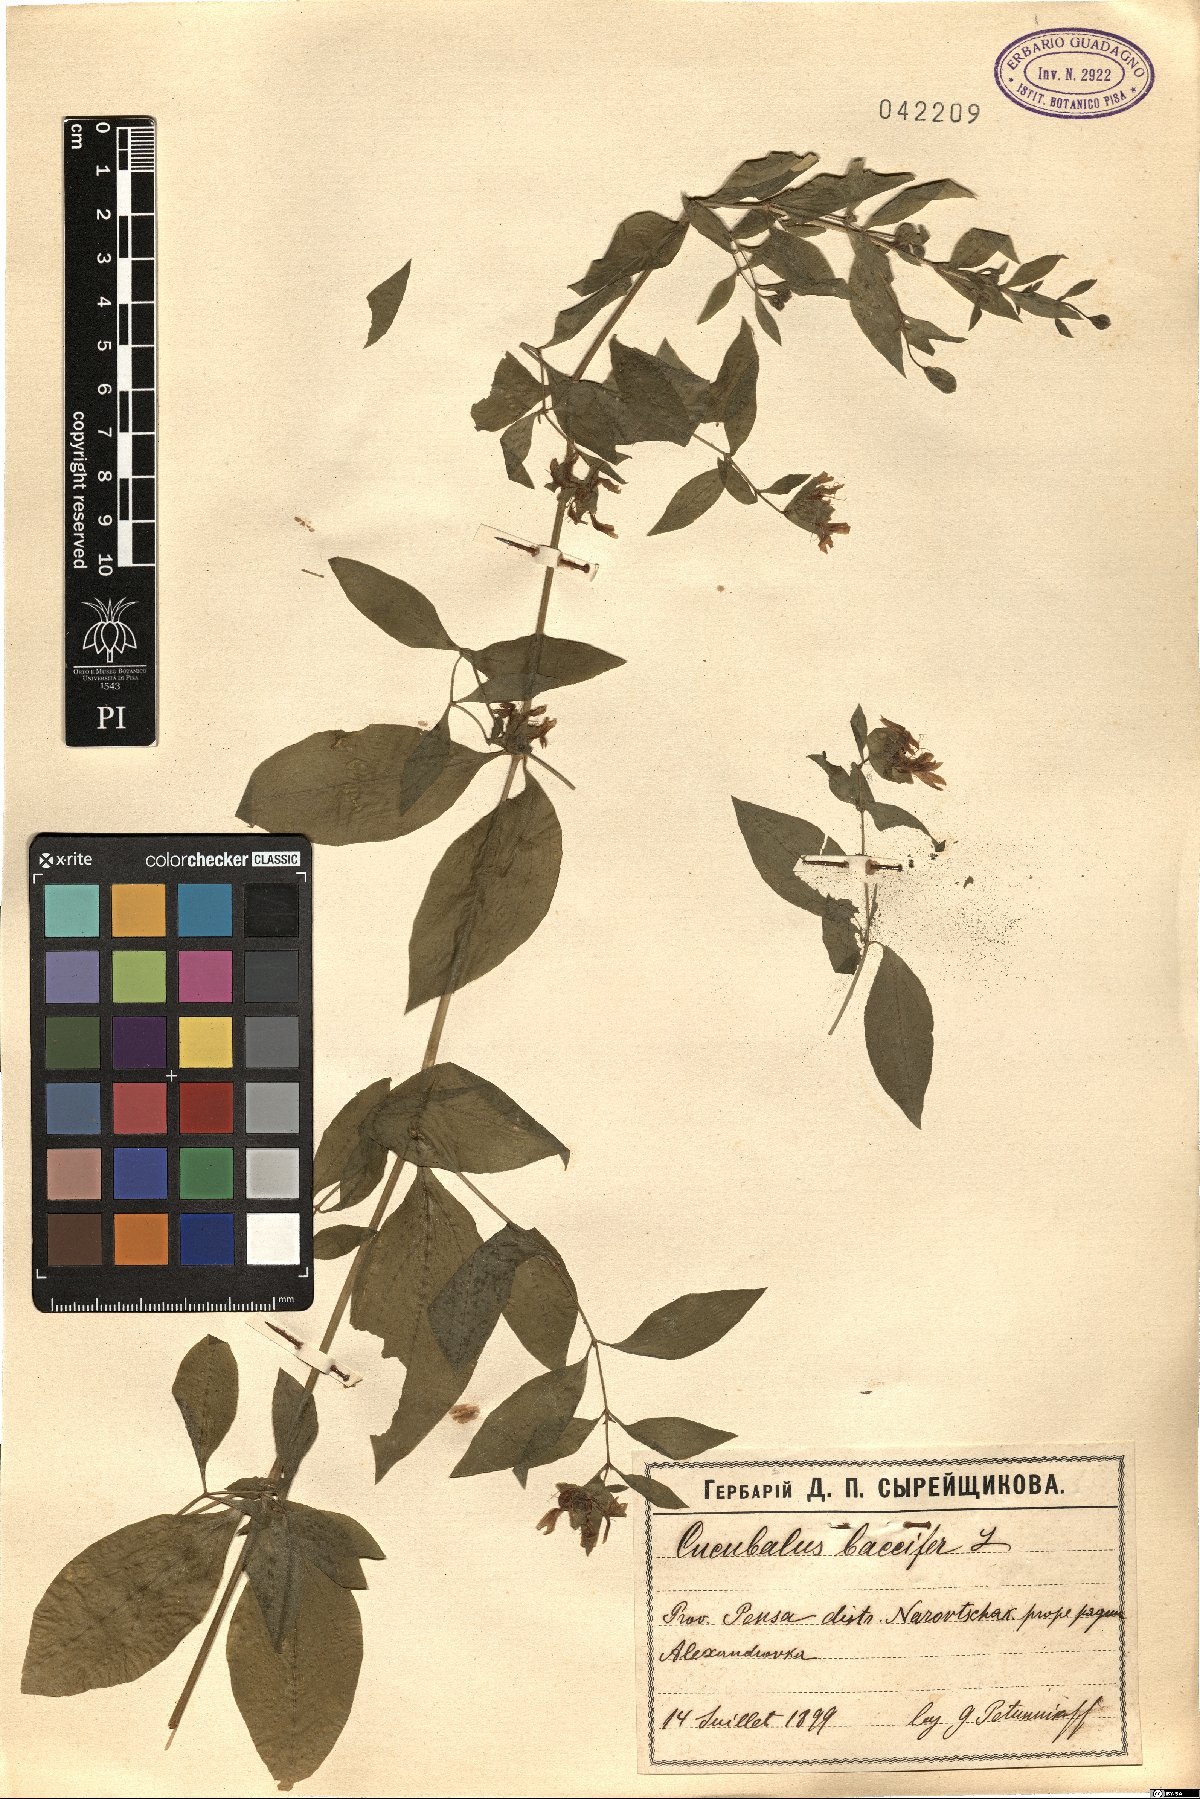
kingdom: Plantae
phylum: Tracheophyta
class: Magnoliopsida
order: Caryophyllales
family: Caryophyllaceae
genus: Silene
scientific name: Silene baccifera
